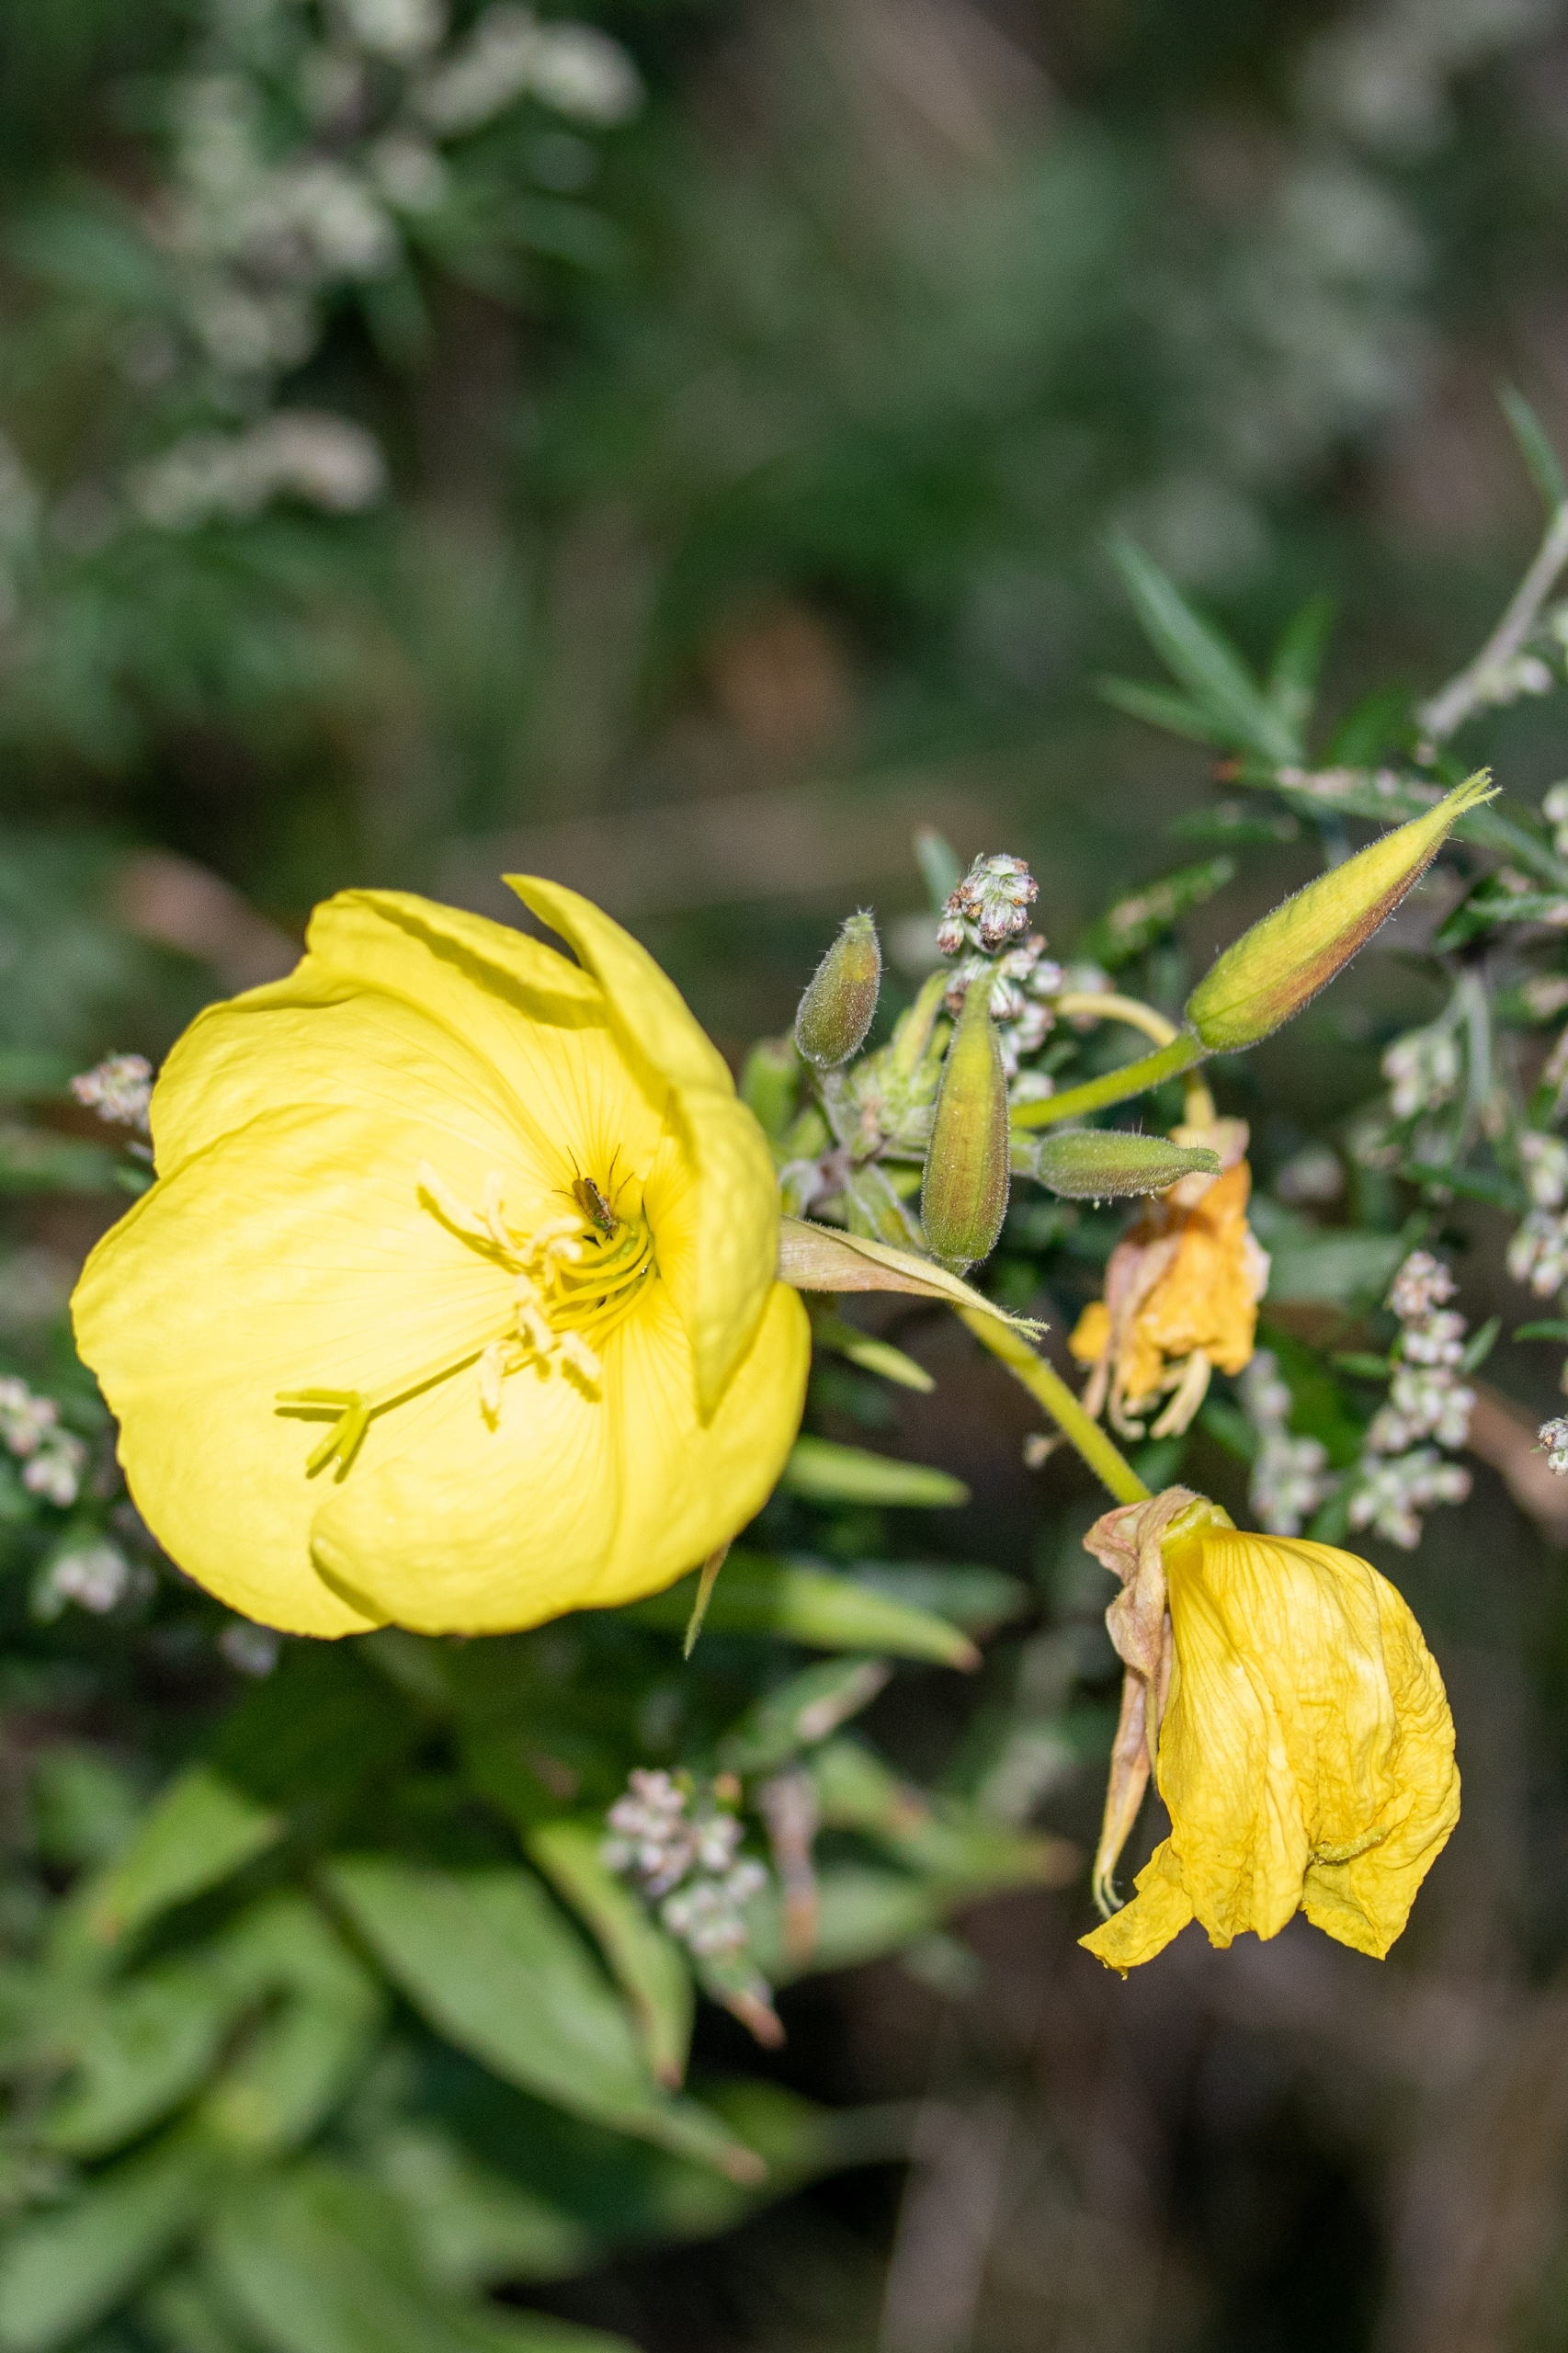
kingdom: Plantae
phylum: Tracheophyta
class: Magnoliopsida
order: Myrtales
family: Onagraceae
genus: Oenothera
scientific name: Oenothera glazioviana
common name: Kæmpe-natlys
